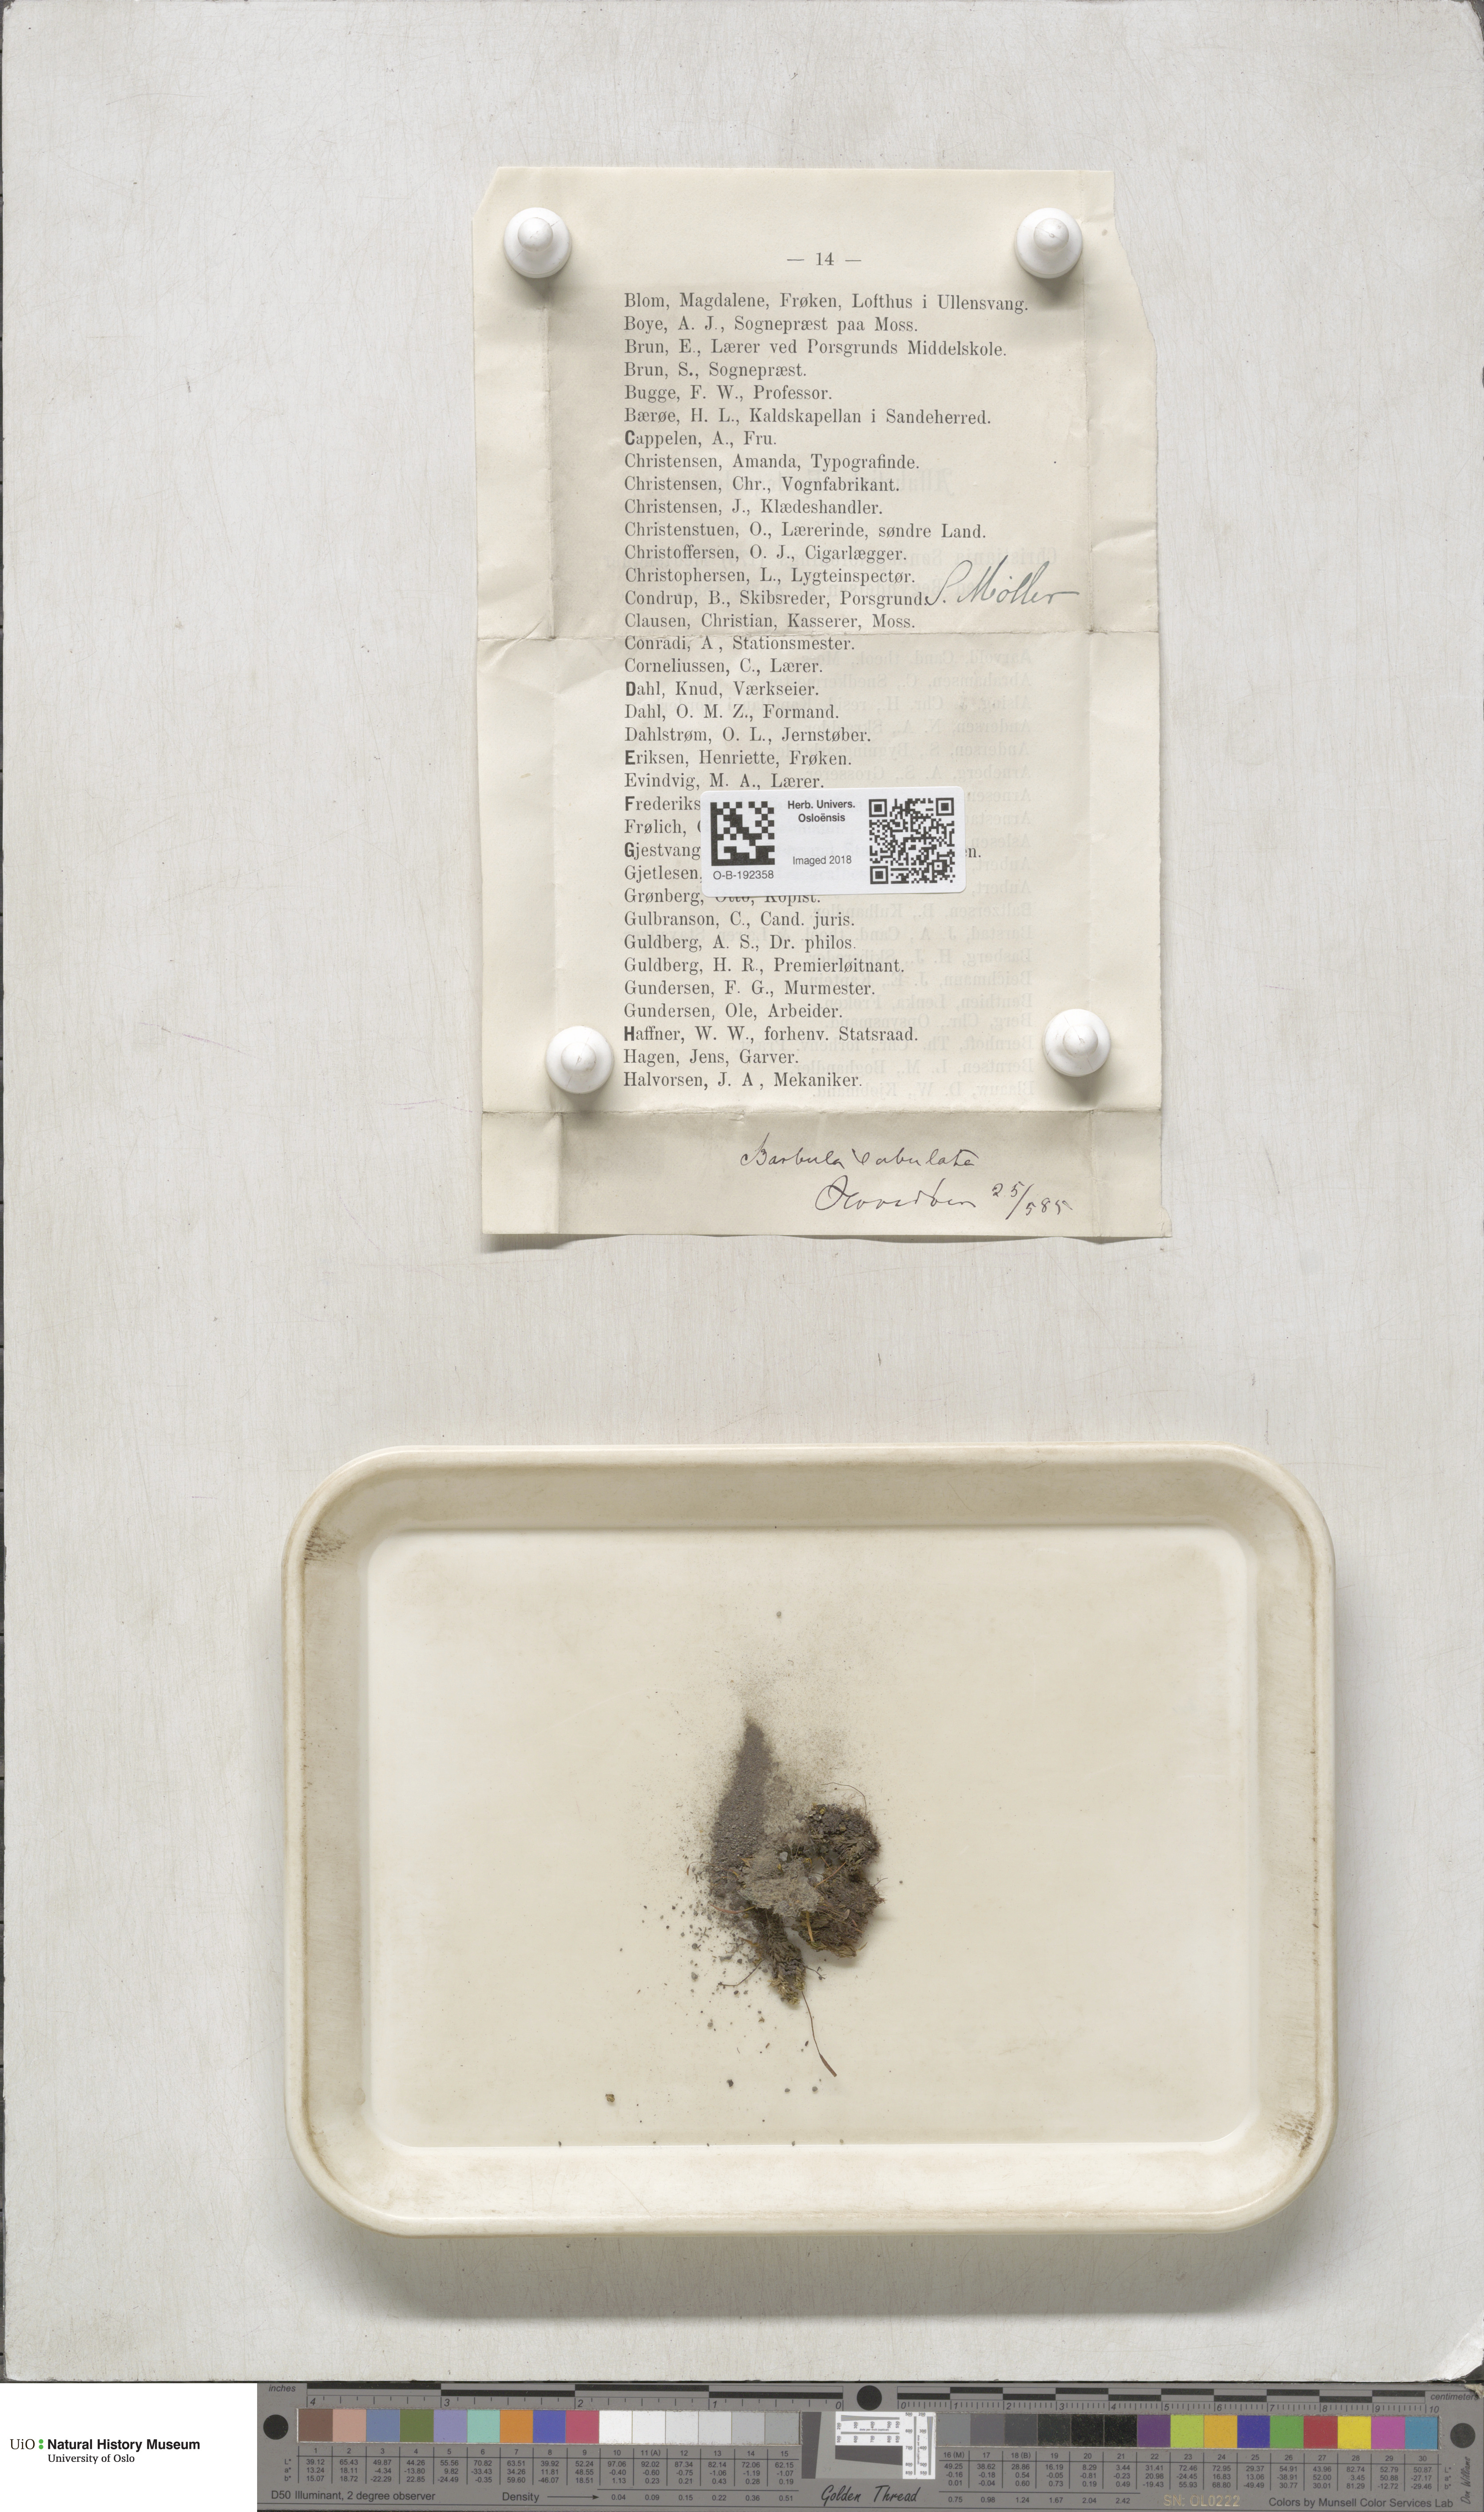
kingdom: Plantae
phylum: Bryophyta
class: Bryopsida
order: Pottiales
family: Pottiaceae
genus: Tortula
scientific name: Tortula subulata
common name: Upright screw-moss
